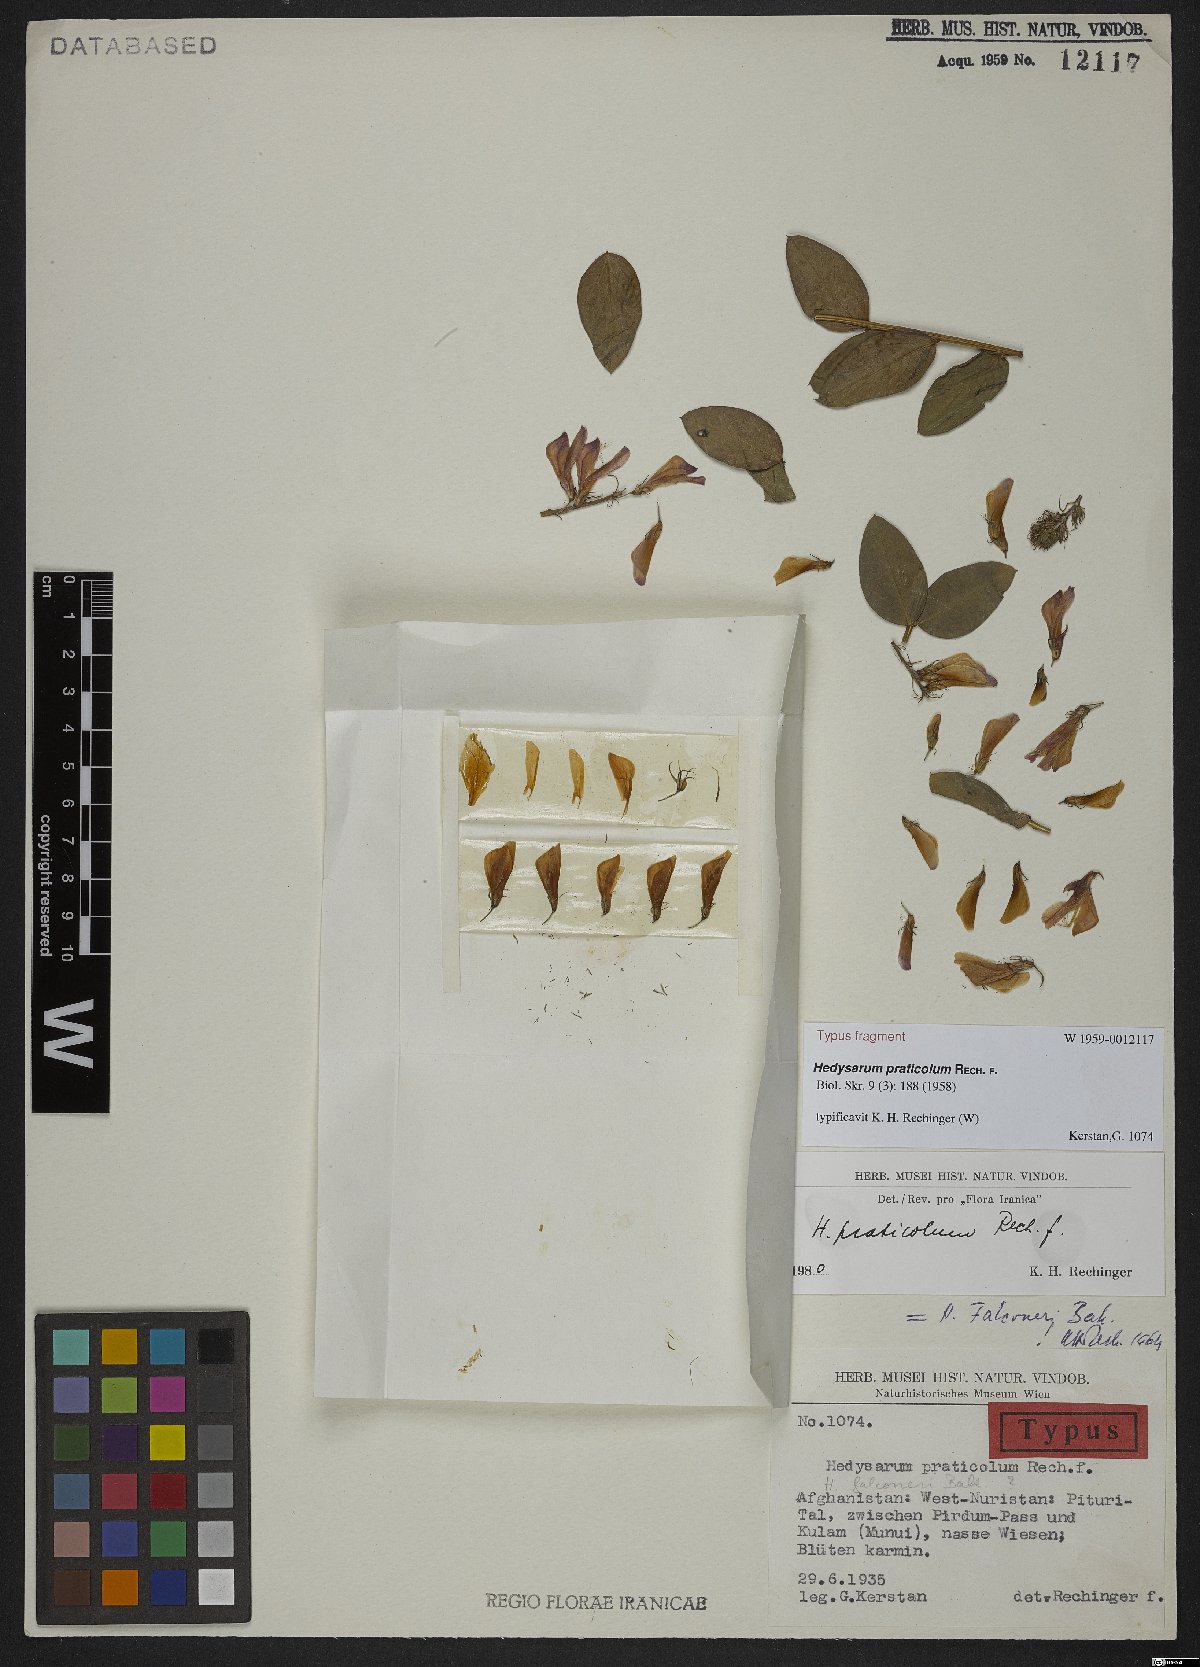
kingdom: Plantae
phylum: Tracheophyta
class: Magnoliopsida
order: Fabales
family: Fabaceae
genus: Hedysarum
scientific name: Hedysarum praticola
